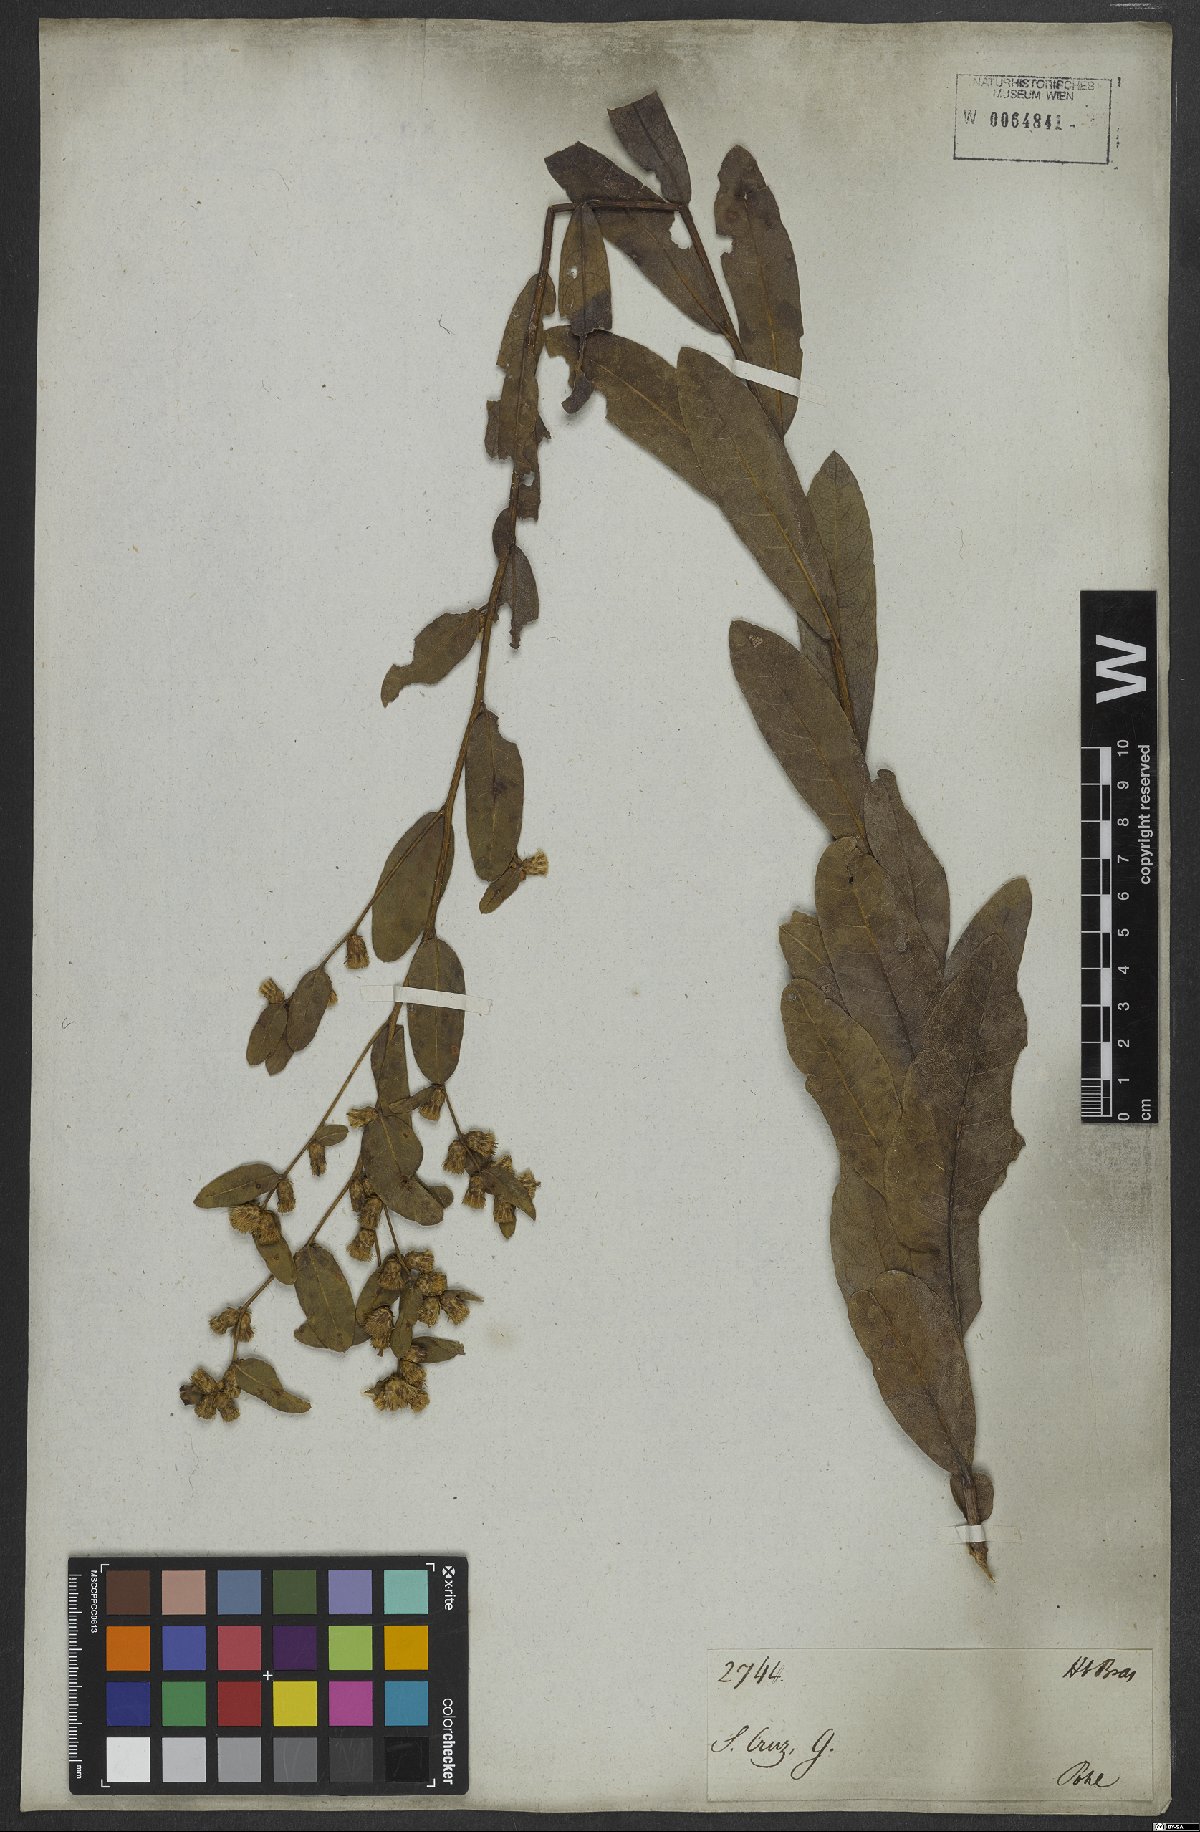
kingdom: Plantae
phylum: Tracheophyta
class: Magnoliopsida
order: Asterales
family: Asteraceae
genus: Lessingianthus
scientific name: Lessingianthus obtusatus
